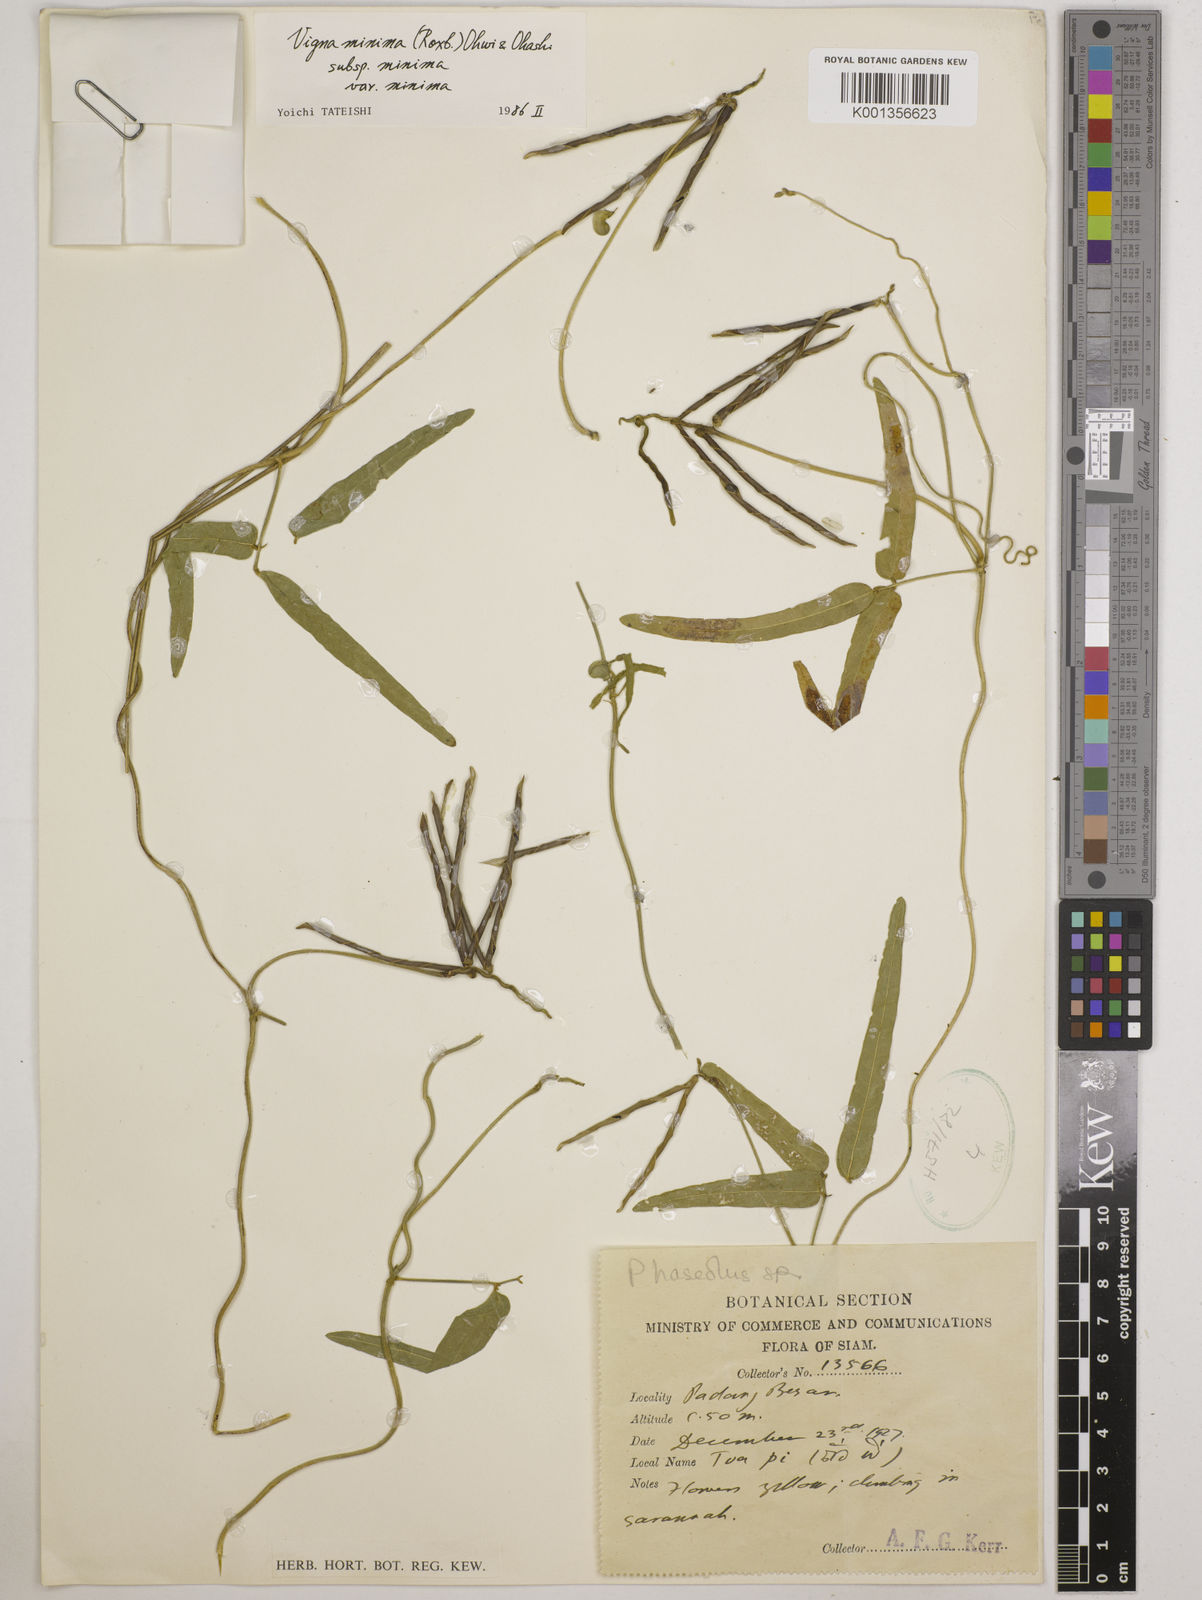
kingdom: Plantae
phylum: Tracheophyta
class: Magnoliopsida
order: Fabales
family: Fabaceae
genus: Vigna
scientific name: Vigna
